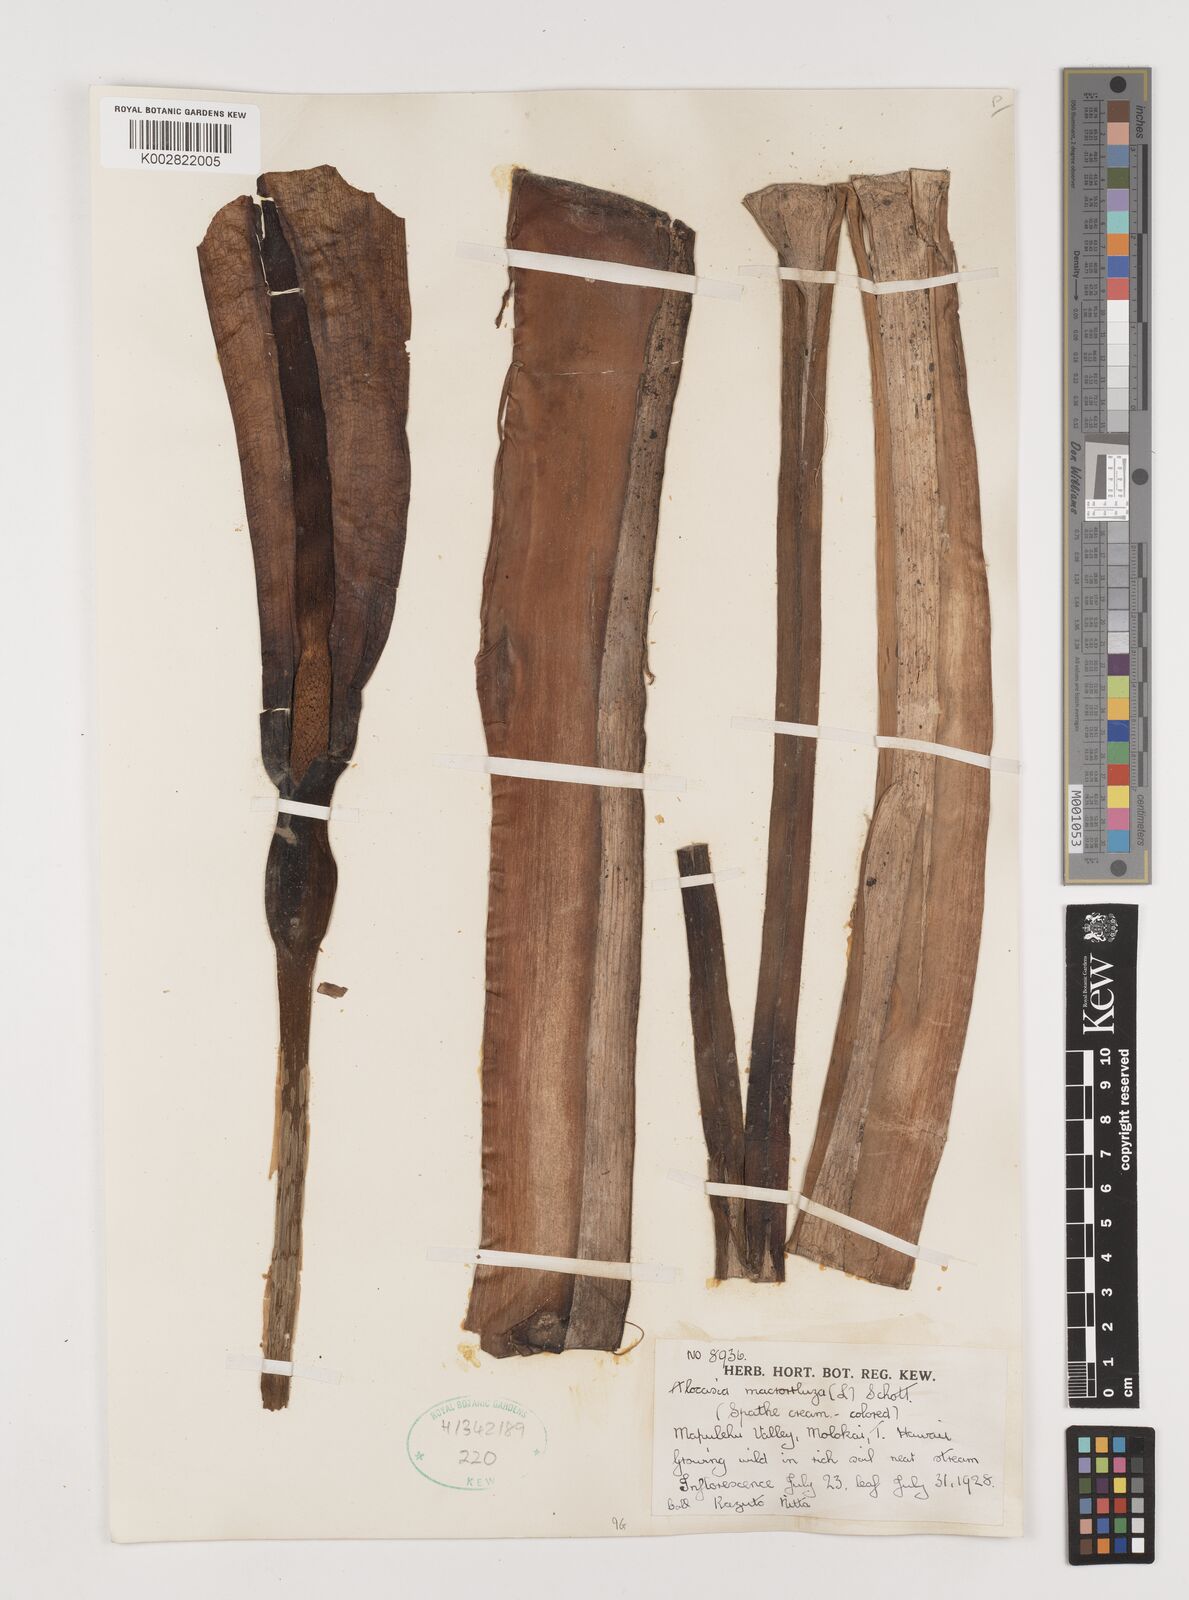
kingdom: Plantae
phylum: Tracheophyta
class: Liliopsida
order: Alismatales
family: Araceae
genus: Alocasia
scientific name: Alocasia macrorrhizos
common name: Giant taro
